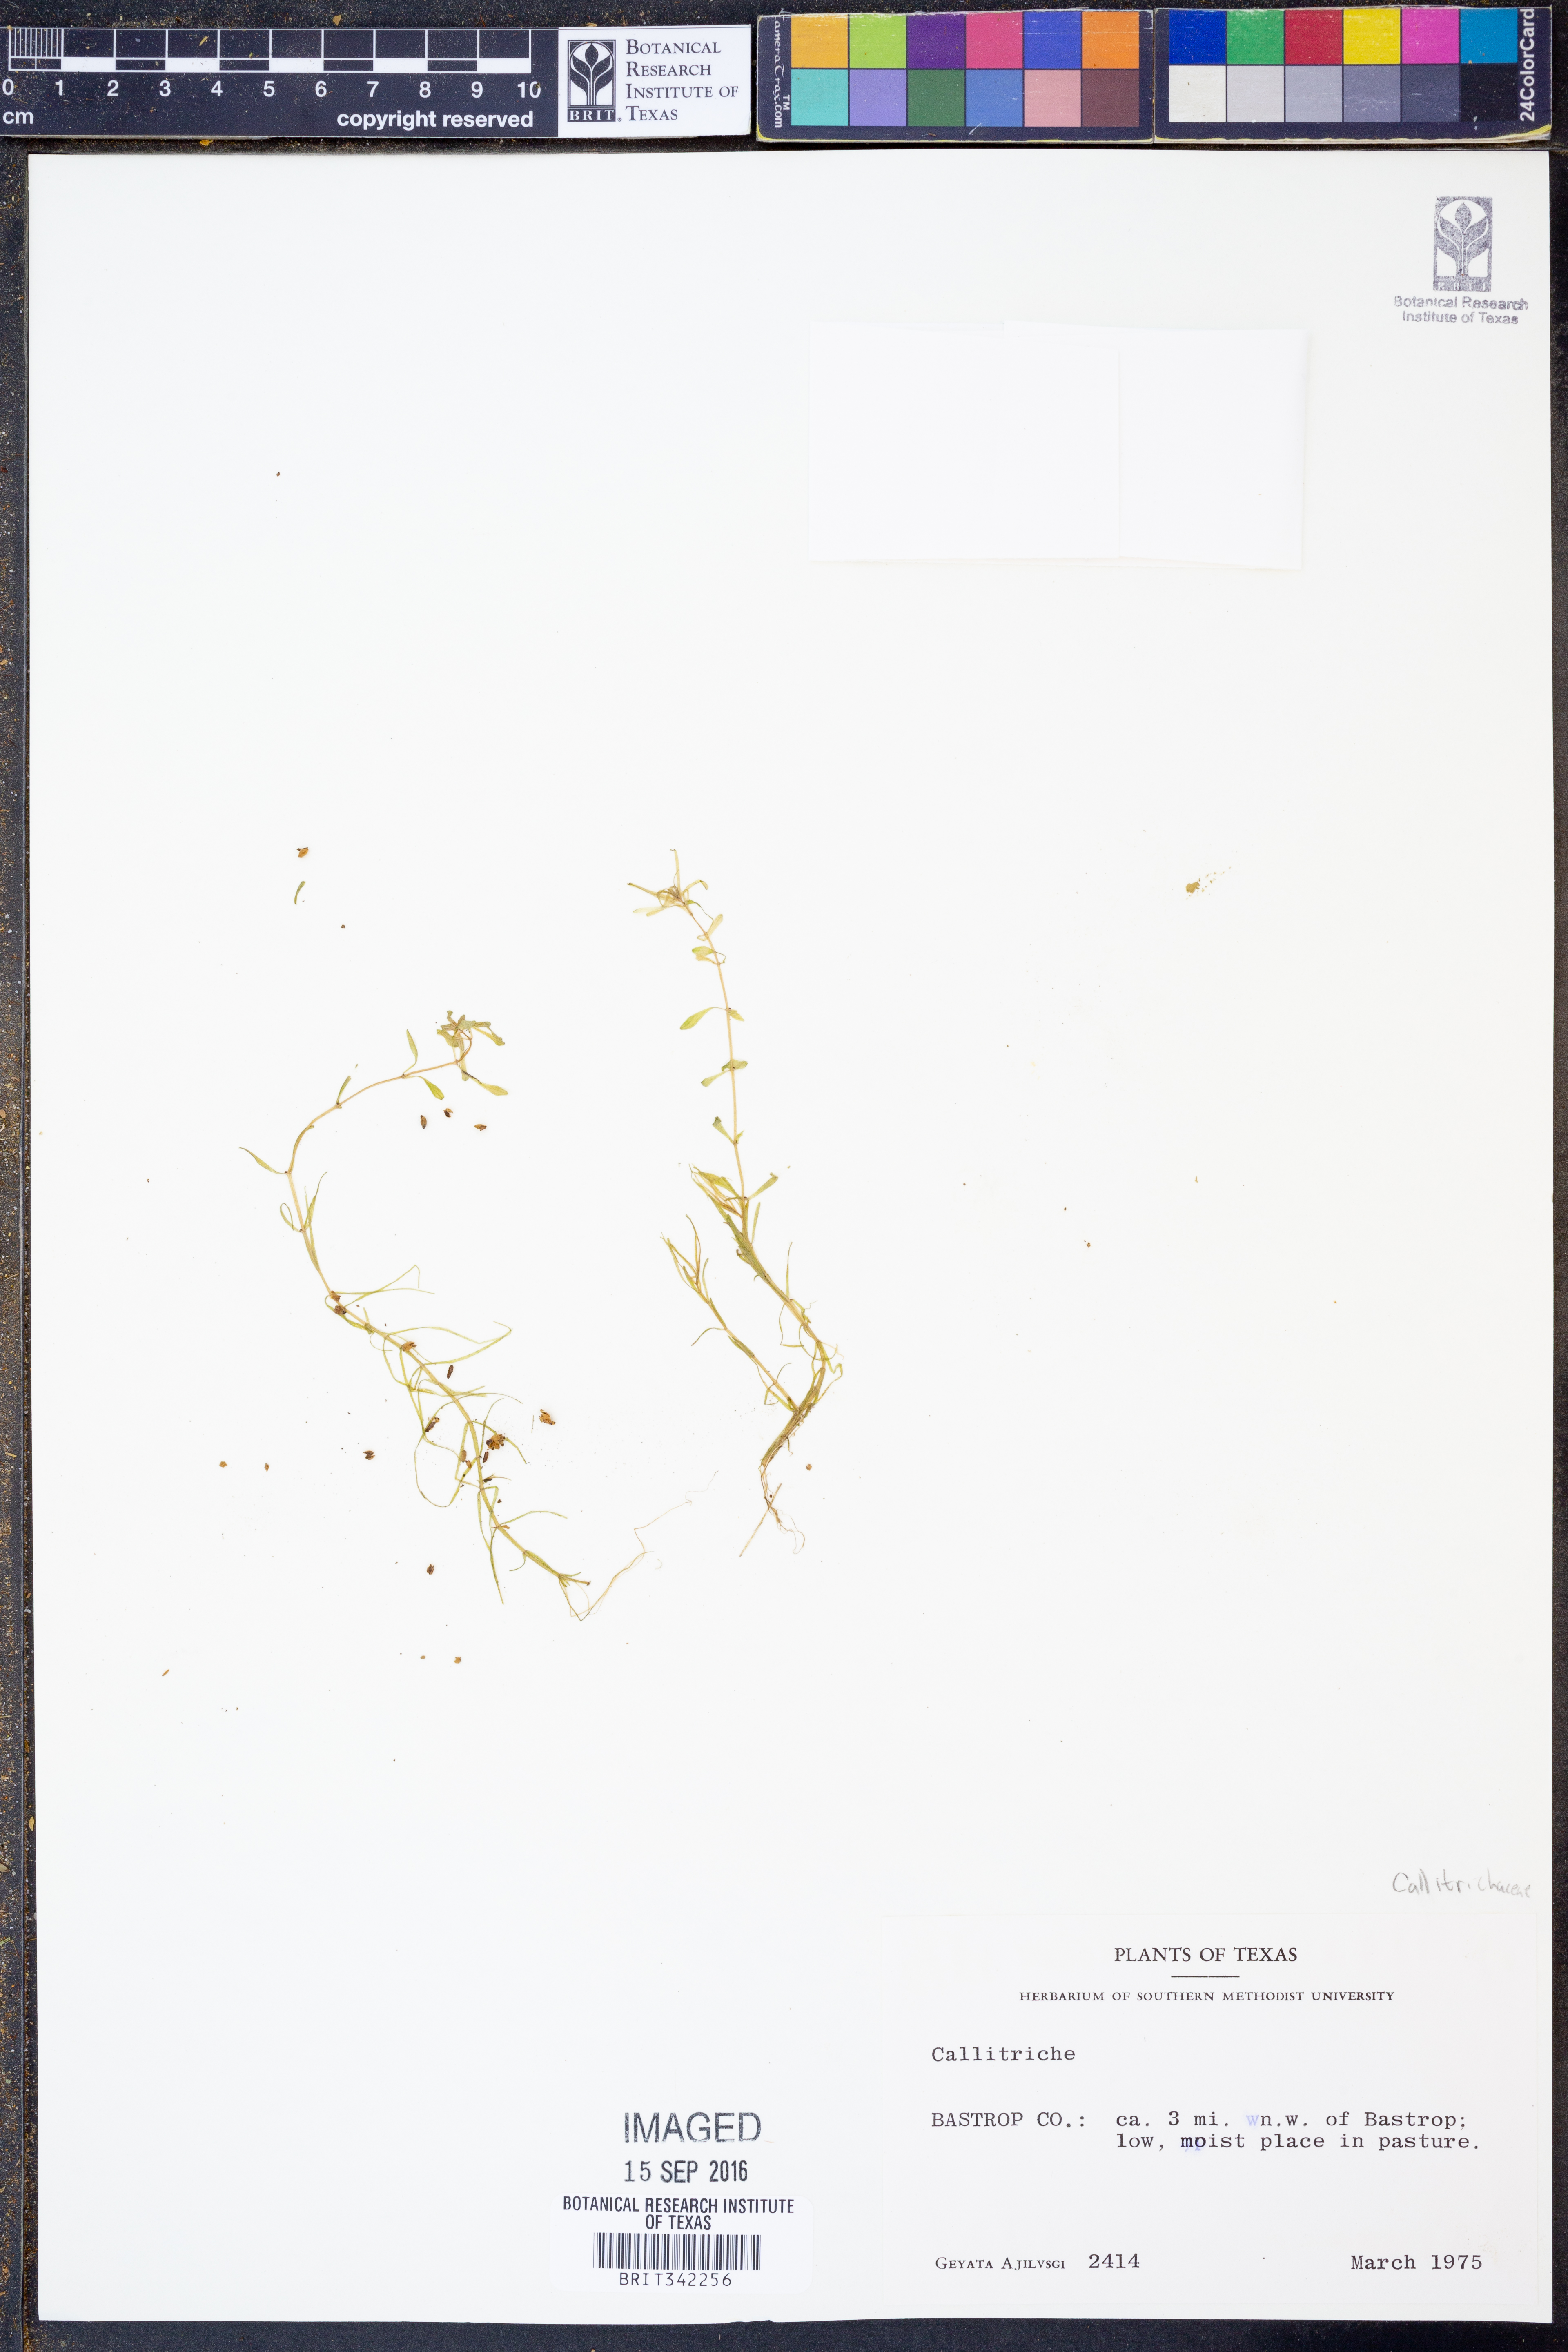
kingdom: Plantae
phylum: Tracheophyta
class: Magnoliopsida
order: Lamiales
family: Plantaginaceae
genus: Callitriche
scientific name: Callitriche
